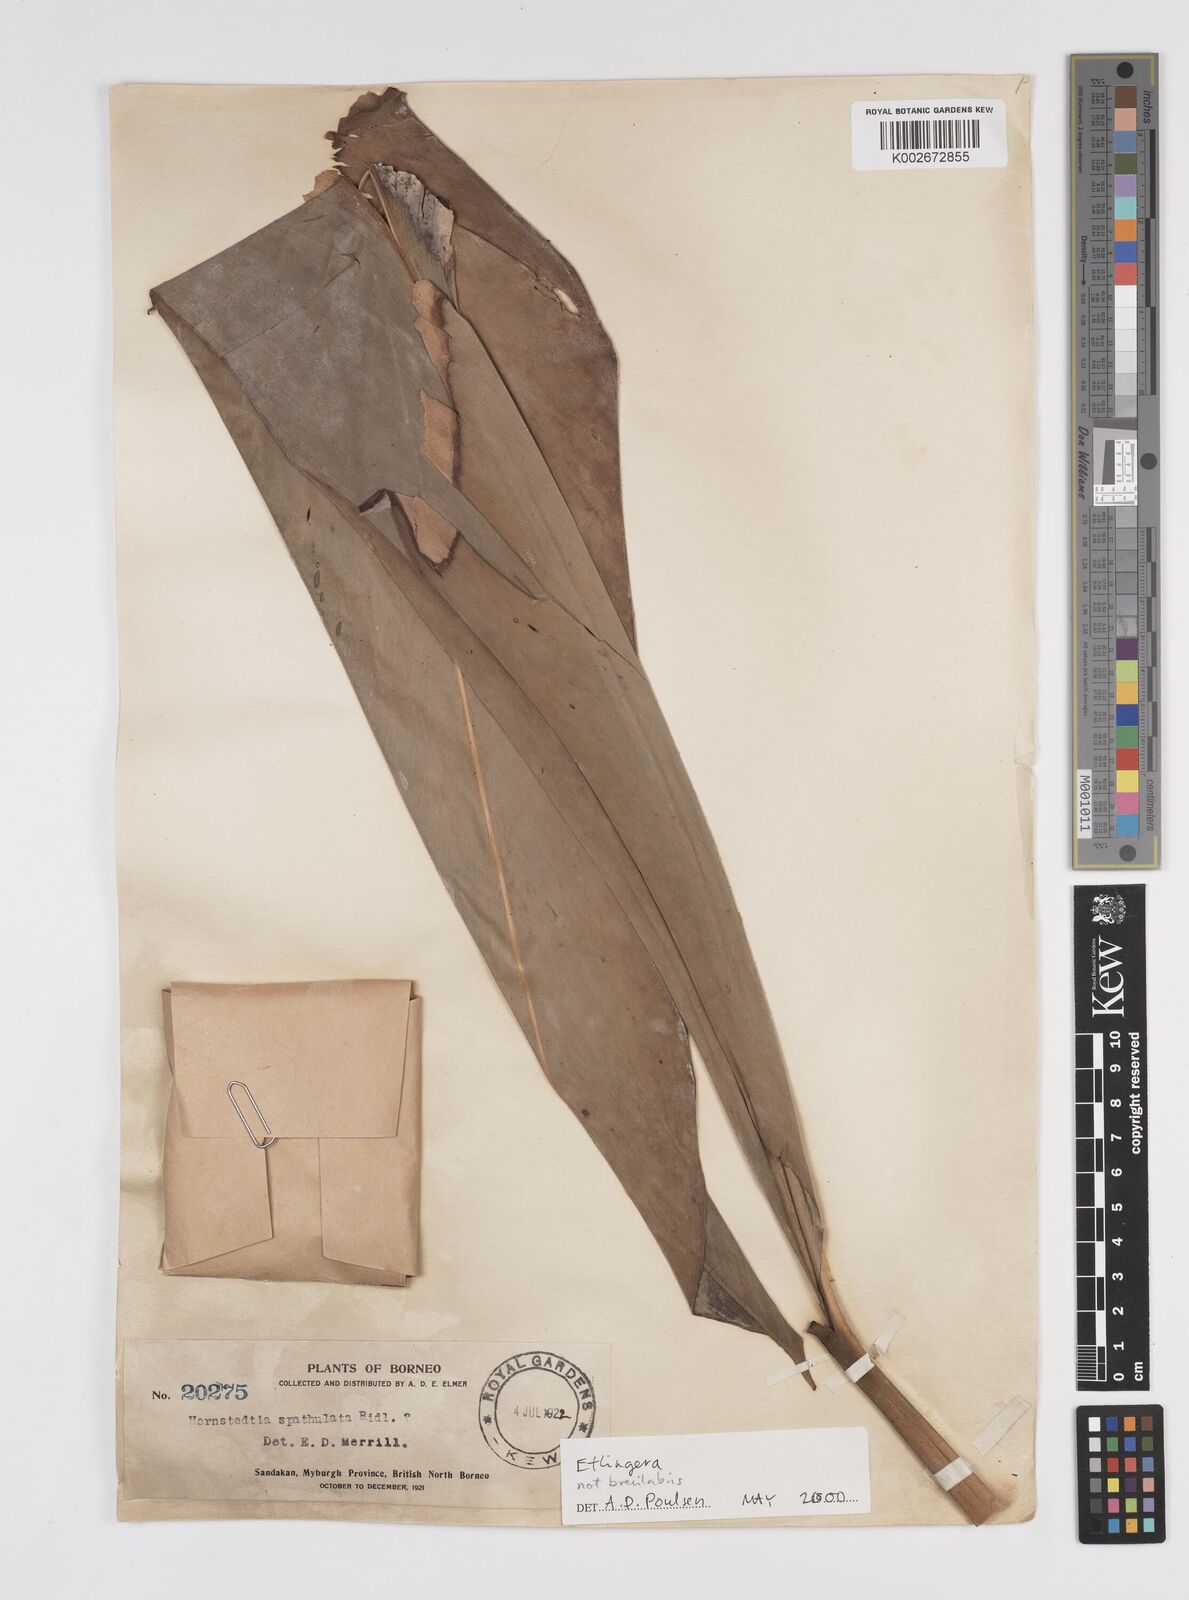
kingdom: Plantae
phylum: Tracheophyta
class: Liliopsida
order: Zingiberales
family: Zingiberaceae
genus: Etlingera
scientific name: Etlingera
